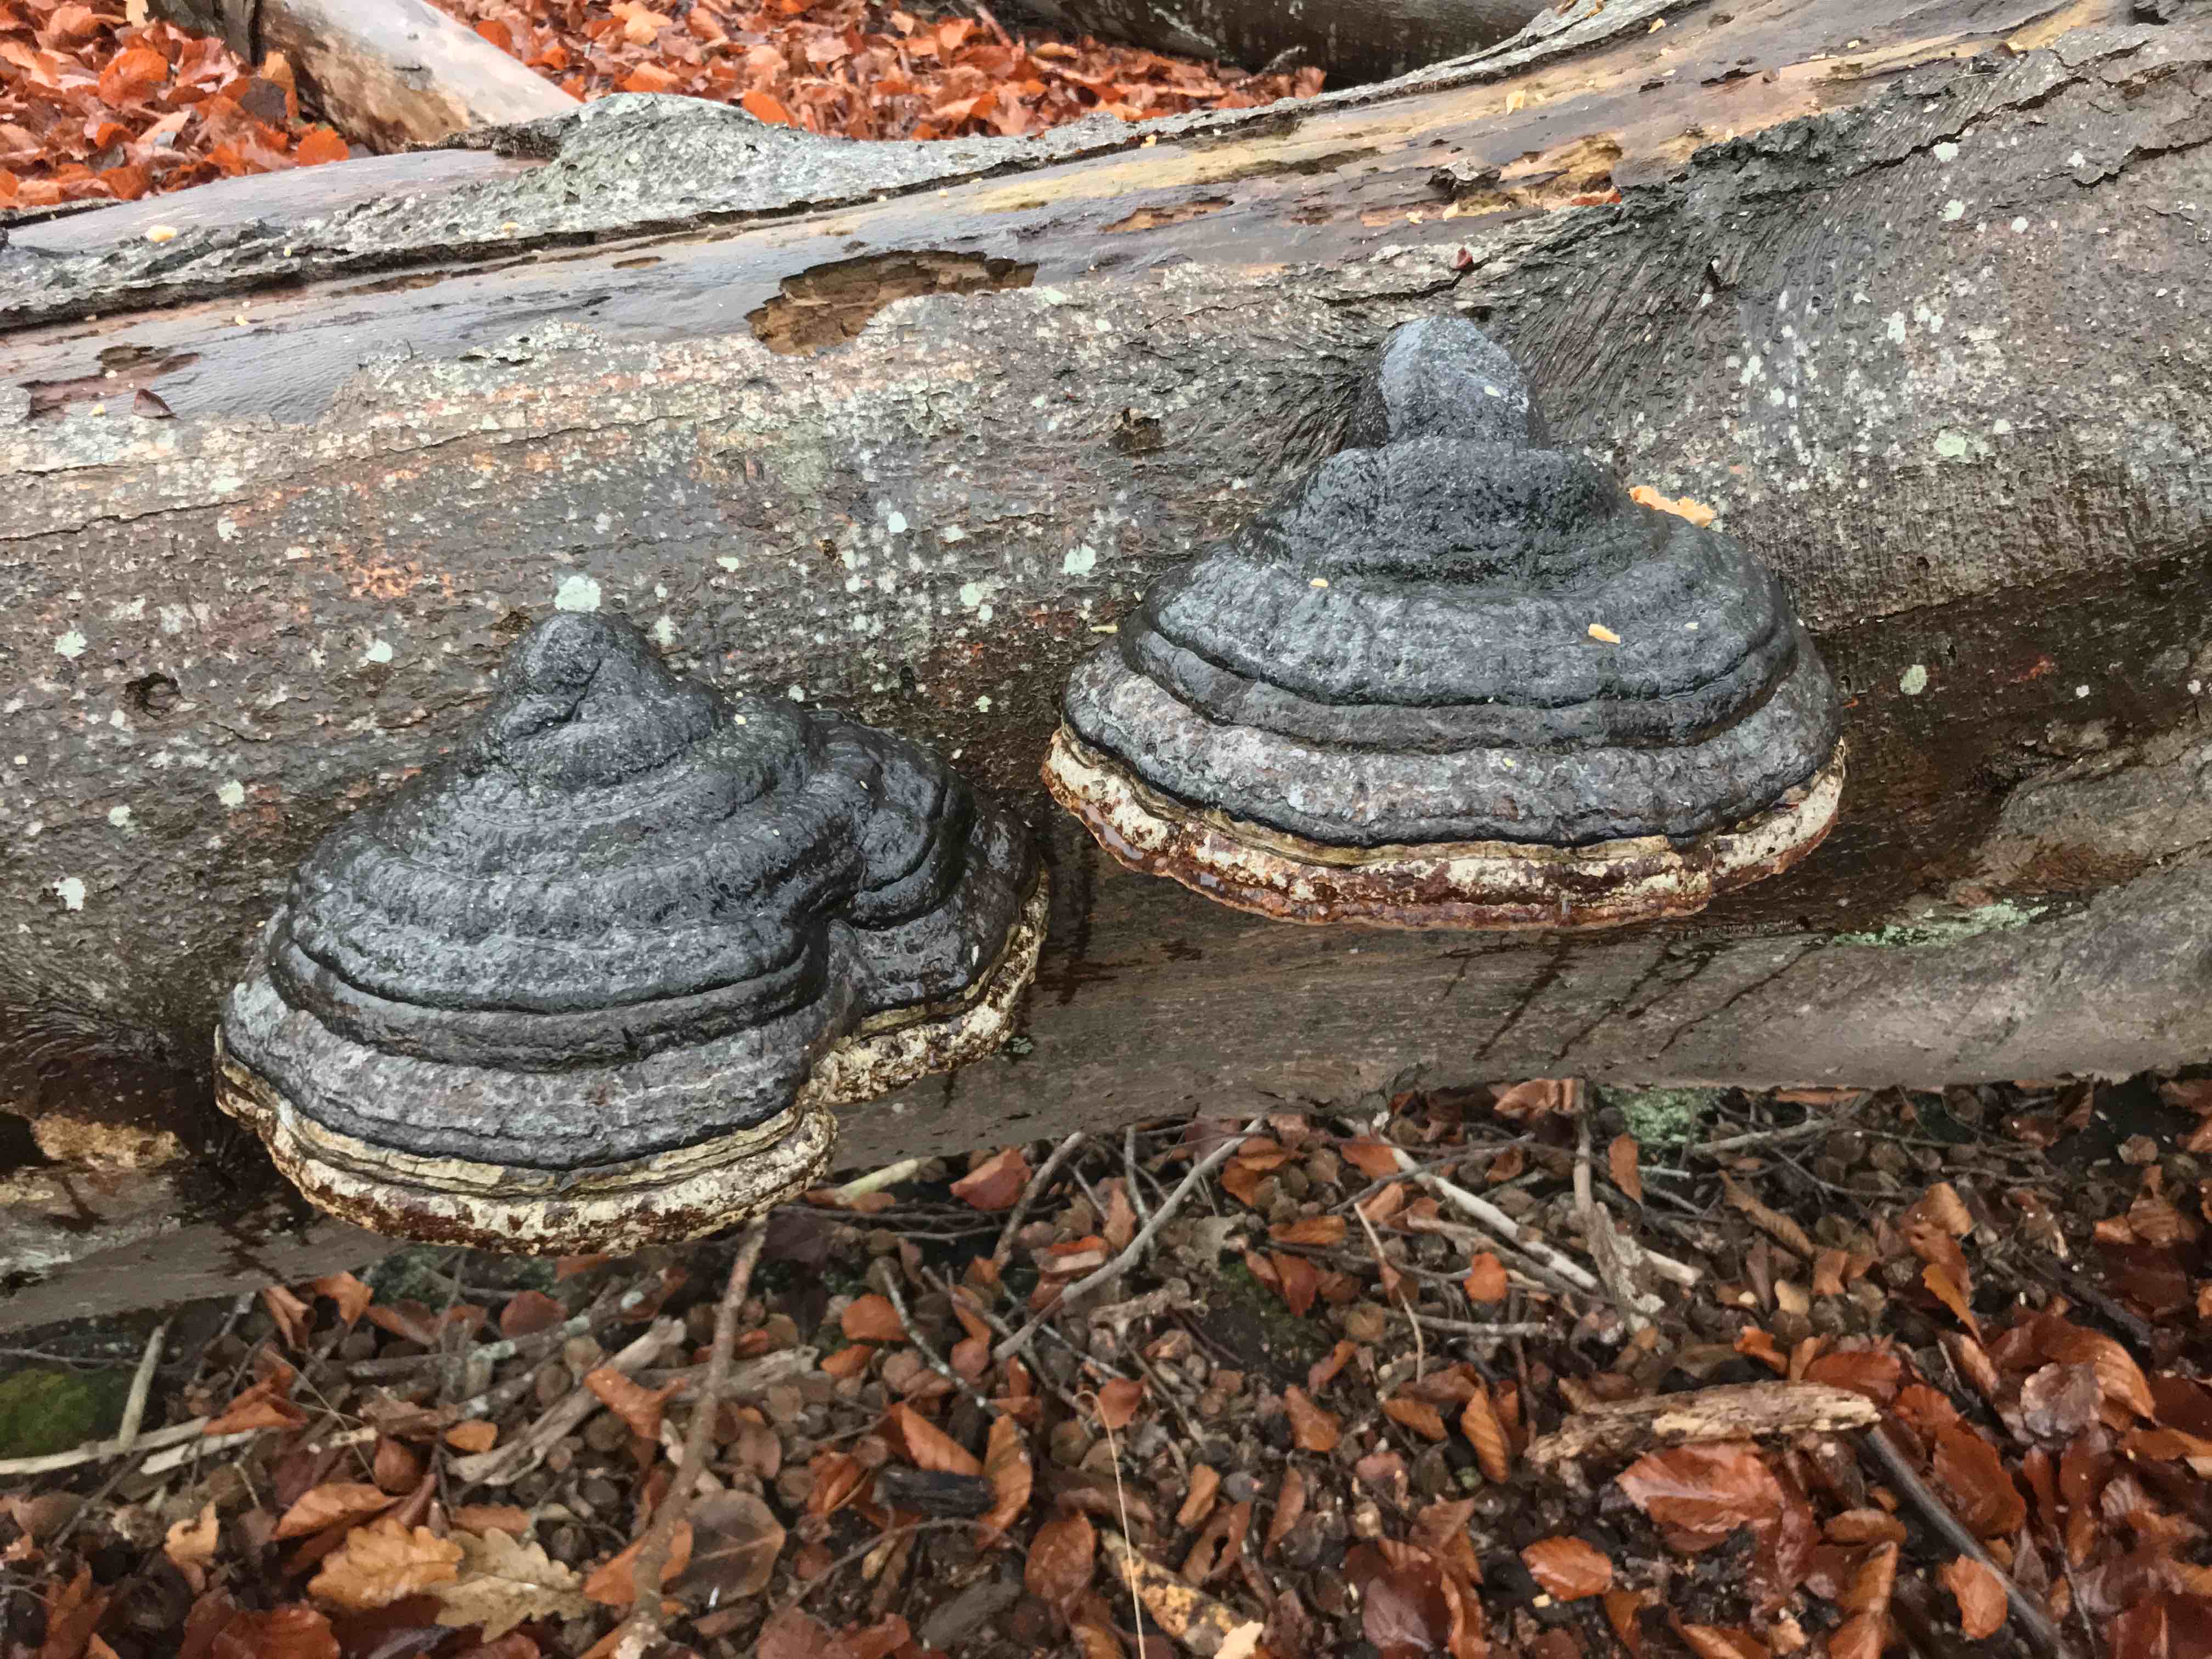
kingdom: Fungi
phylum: Basidiomycota
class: Agaricomycetes
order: Polyporales
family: Polyporaceae
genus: Fomes
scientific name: Fomes fomentarius
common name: tøndersvamp
